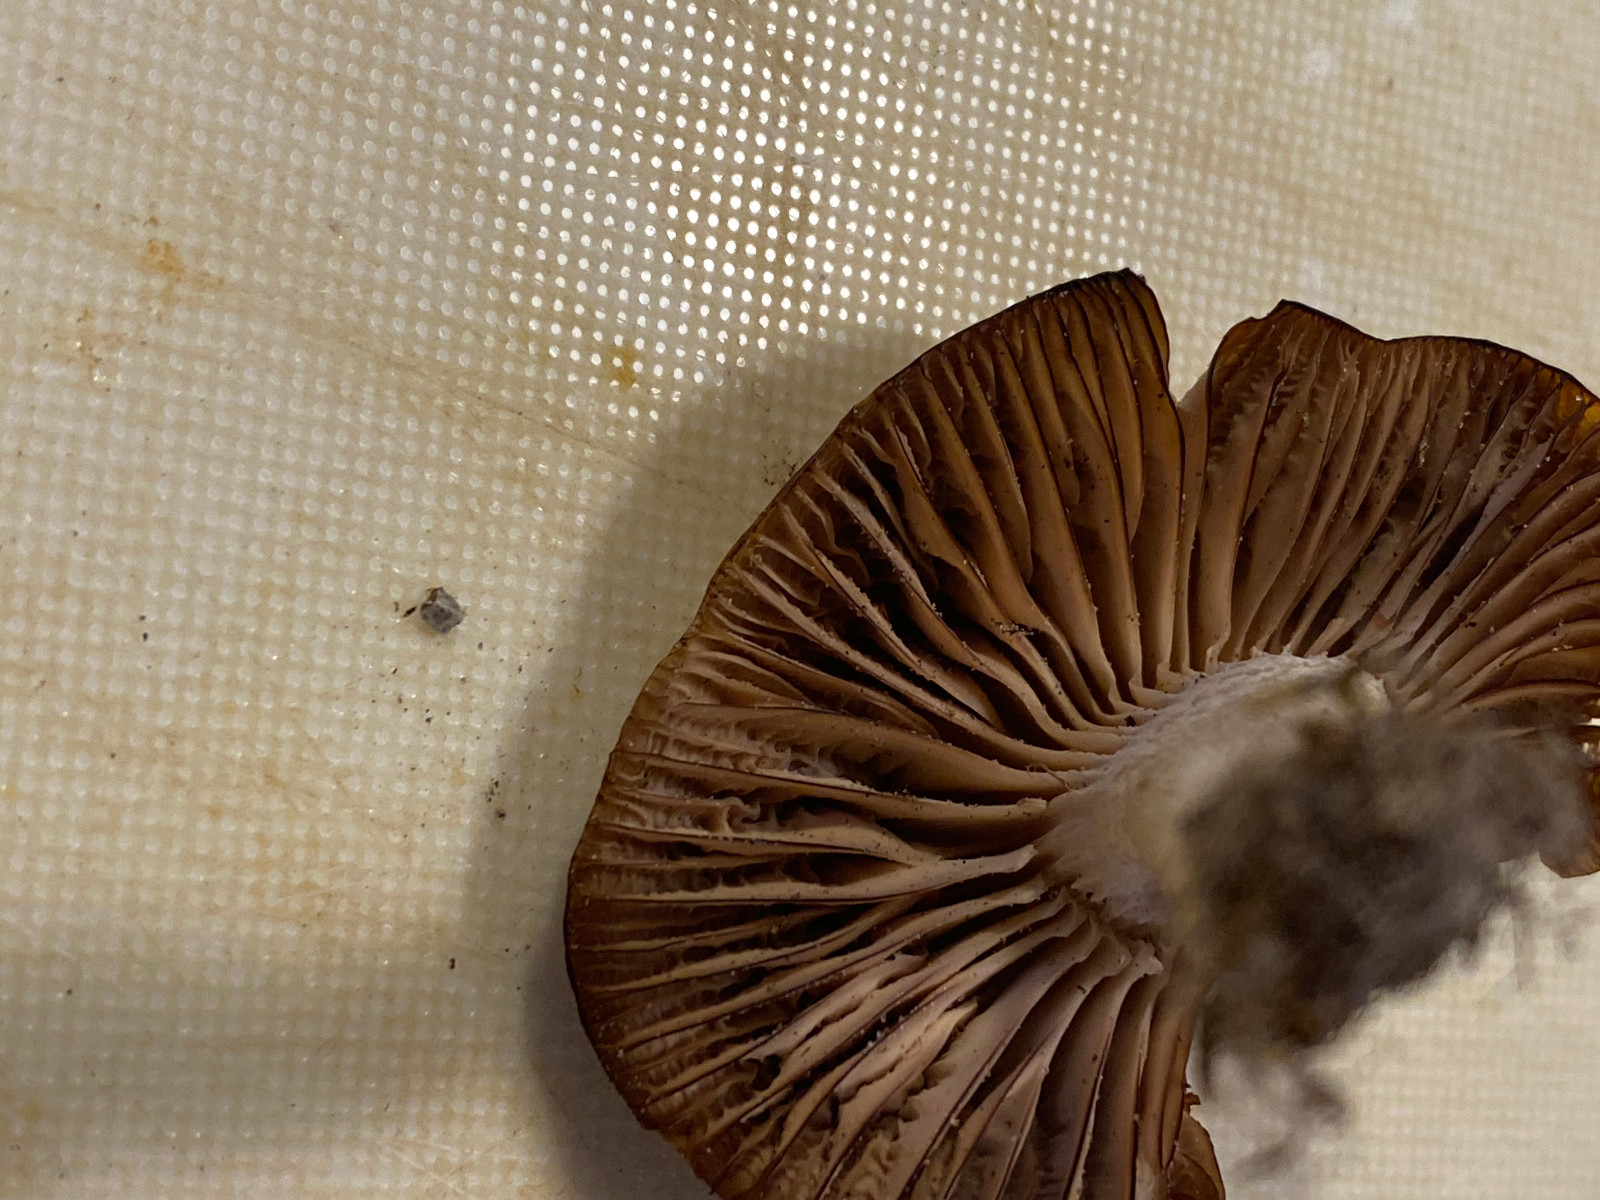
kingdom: Fungi
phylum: Basidiomycota
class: Agaricomycetes
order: Agaricales
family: Hygrophoraceae
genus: Cuphophyllus
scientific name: Cuphophyllus colemannianus
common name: rødbrun vokshat
